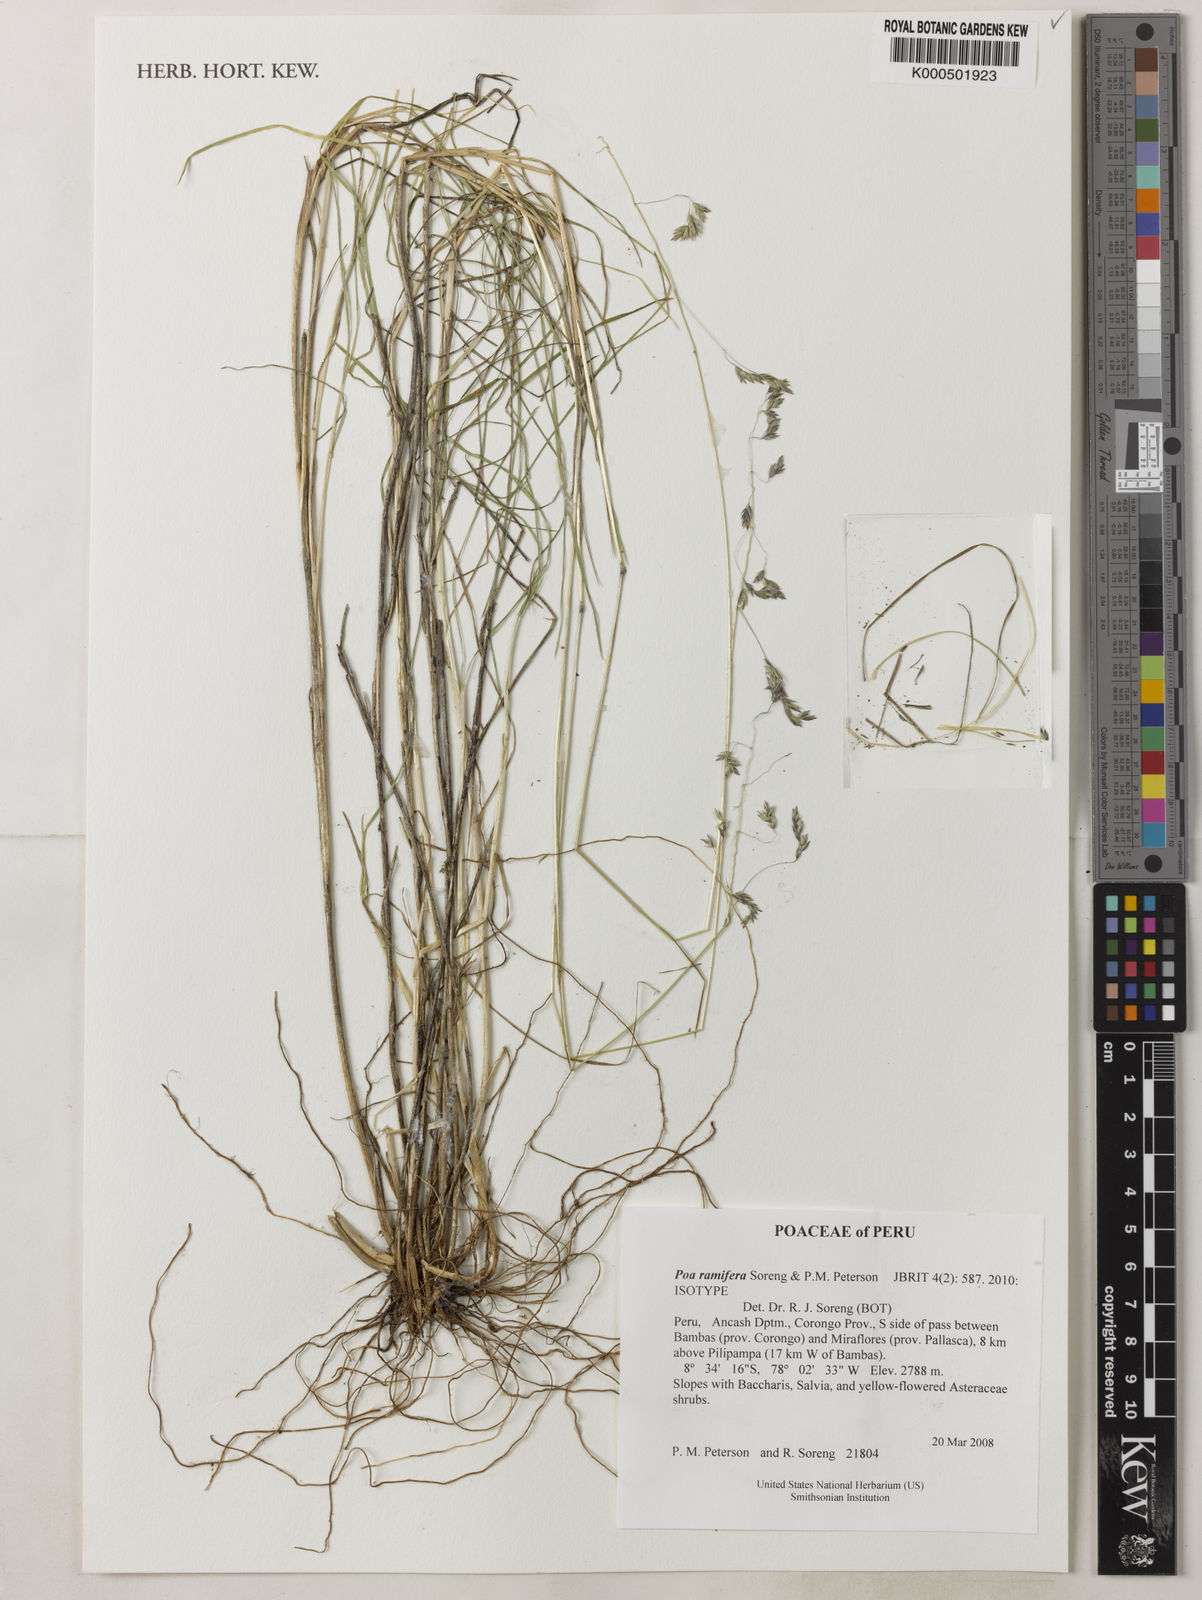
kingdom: Plantae
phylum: Tracheophyta
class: Liliopsida
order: Poales
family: Poaceae
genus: Poa
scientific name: Poa ramifera
